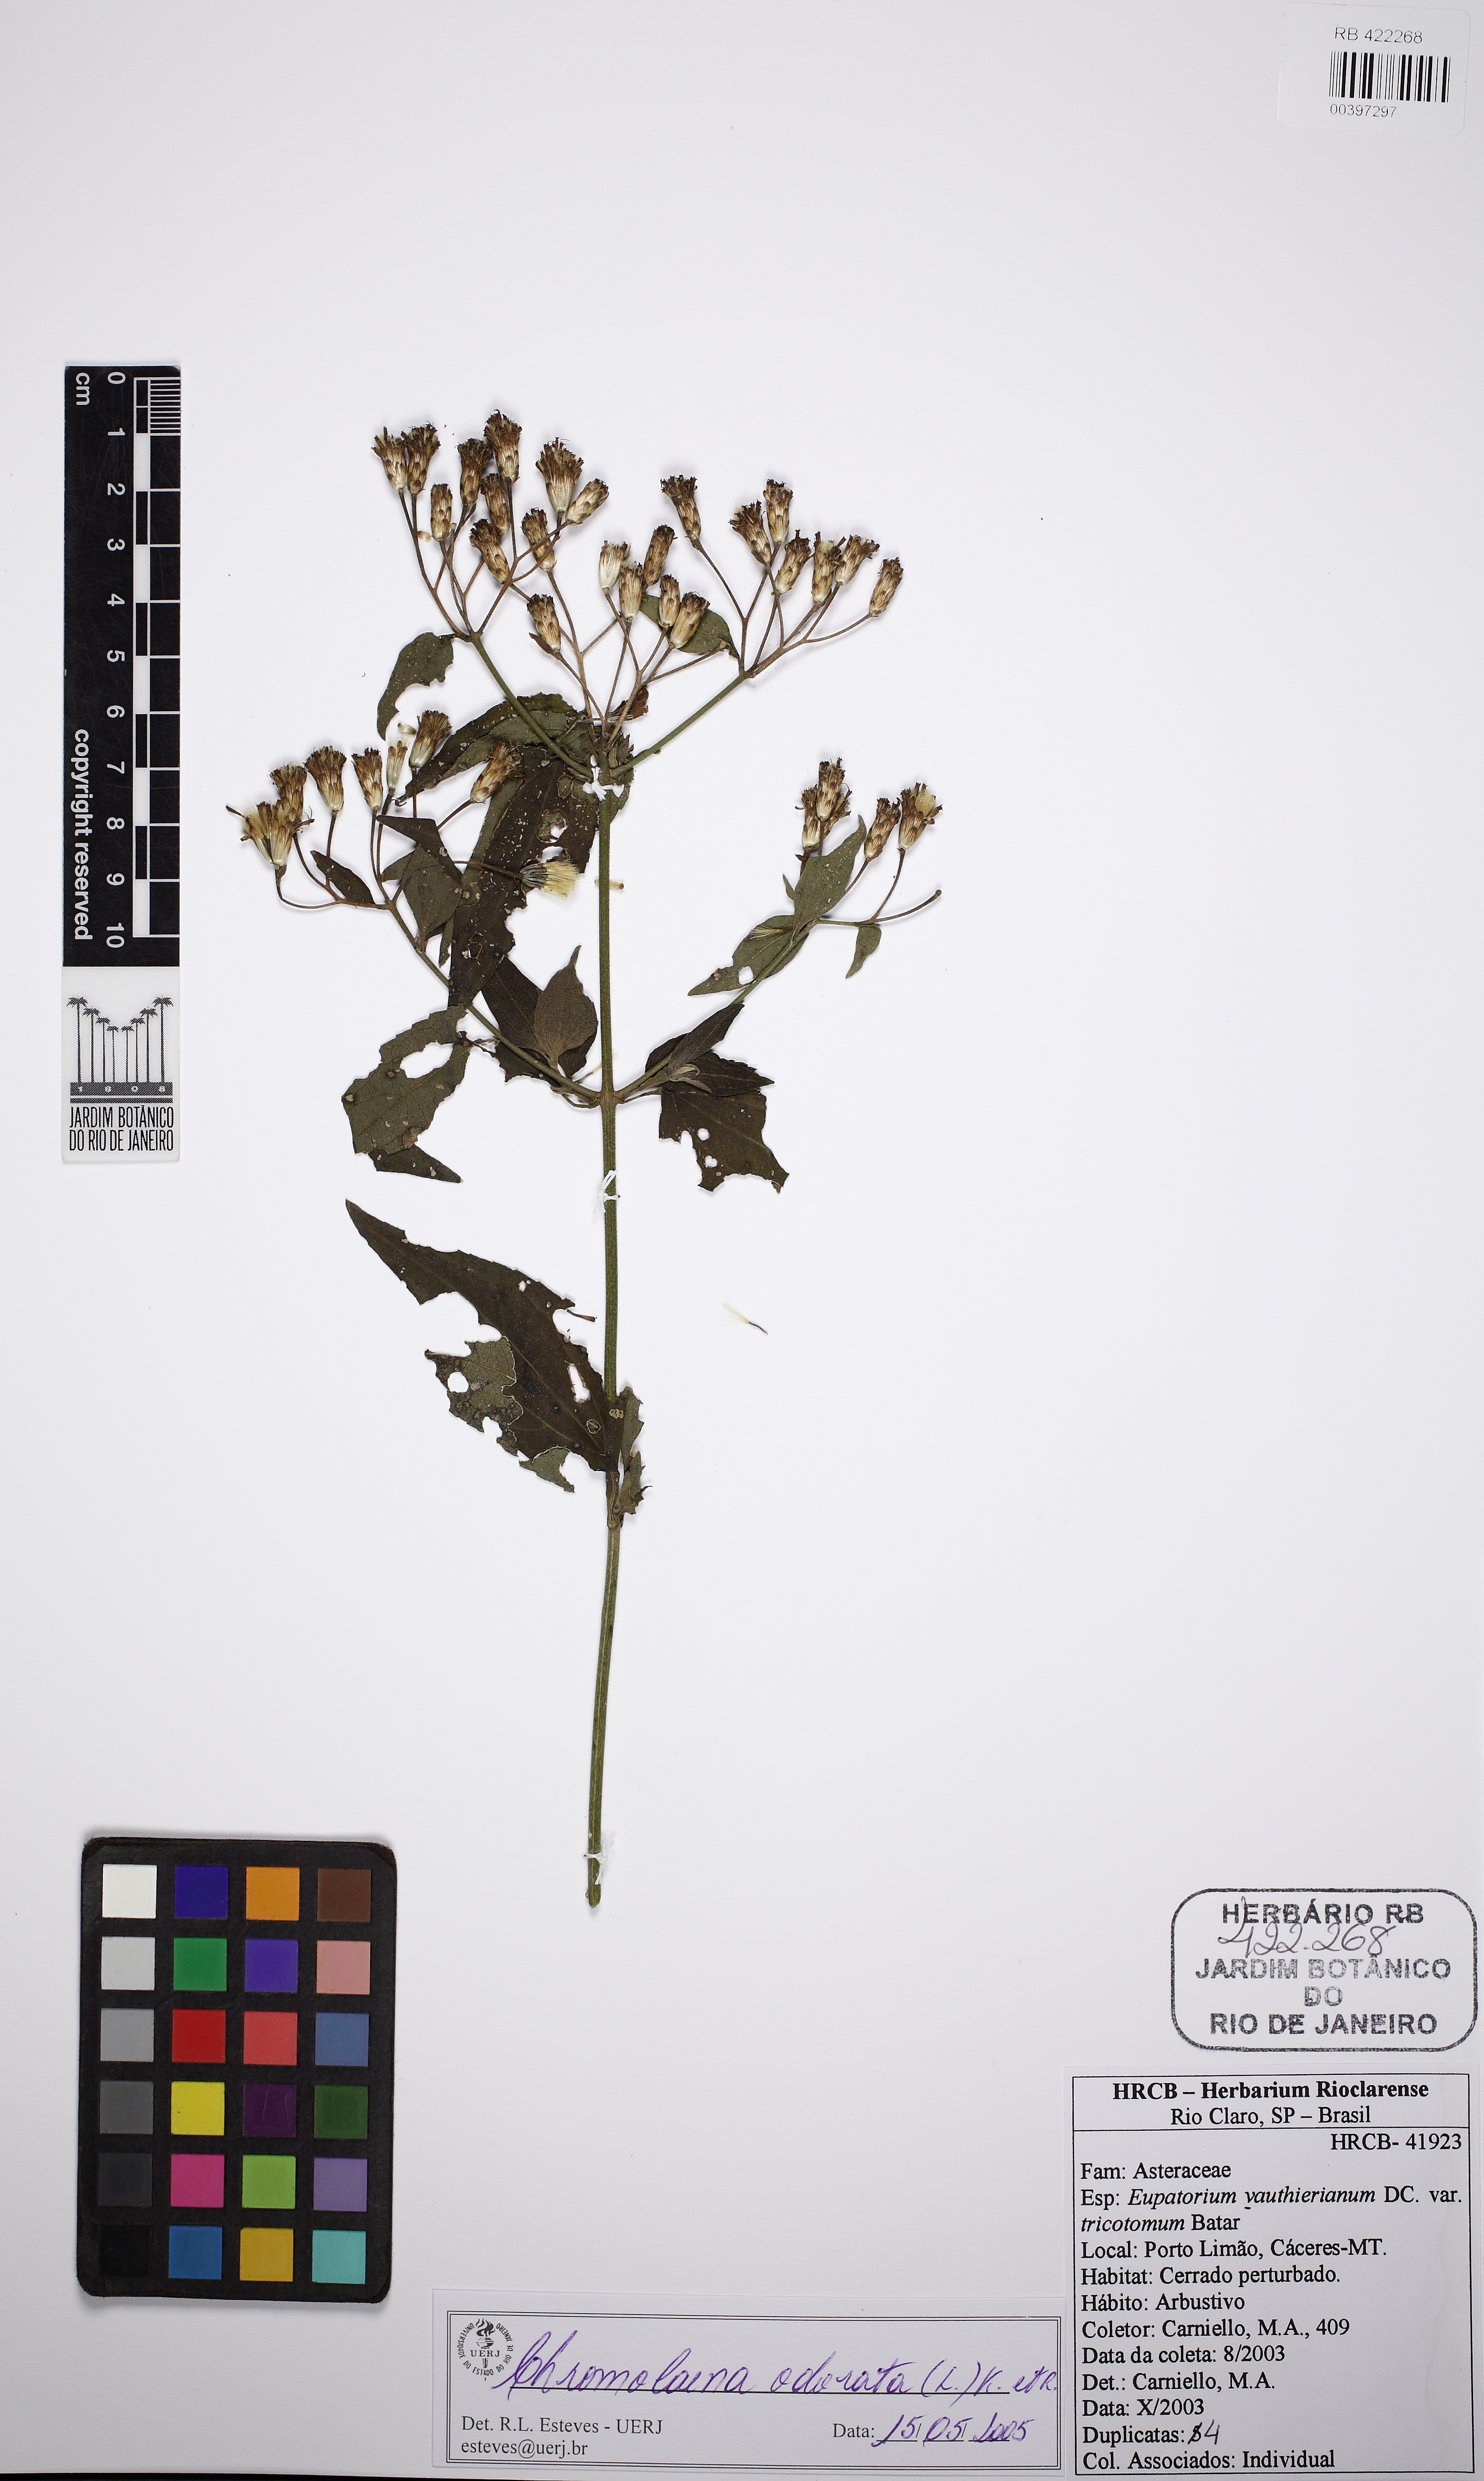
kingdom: Plantae
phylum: Tracheophyta
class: Magnoliopsida
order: Asterales
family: Asteraceae
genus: Chromolaena
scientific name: Chromolaena odorata
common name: Siamweed
